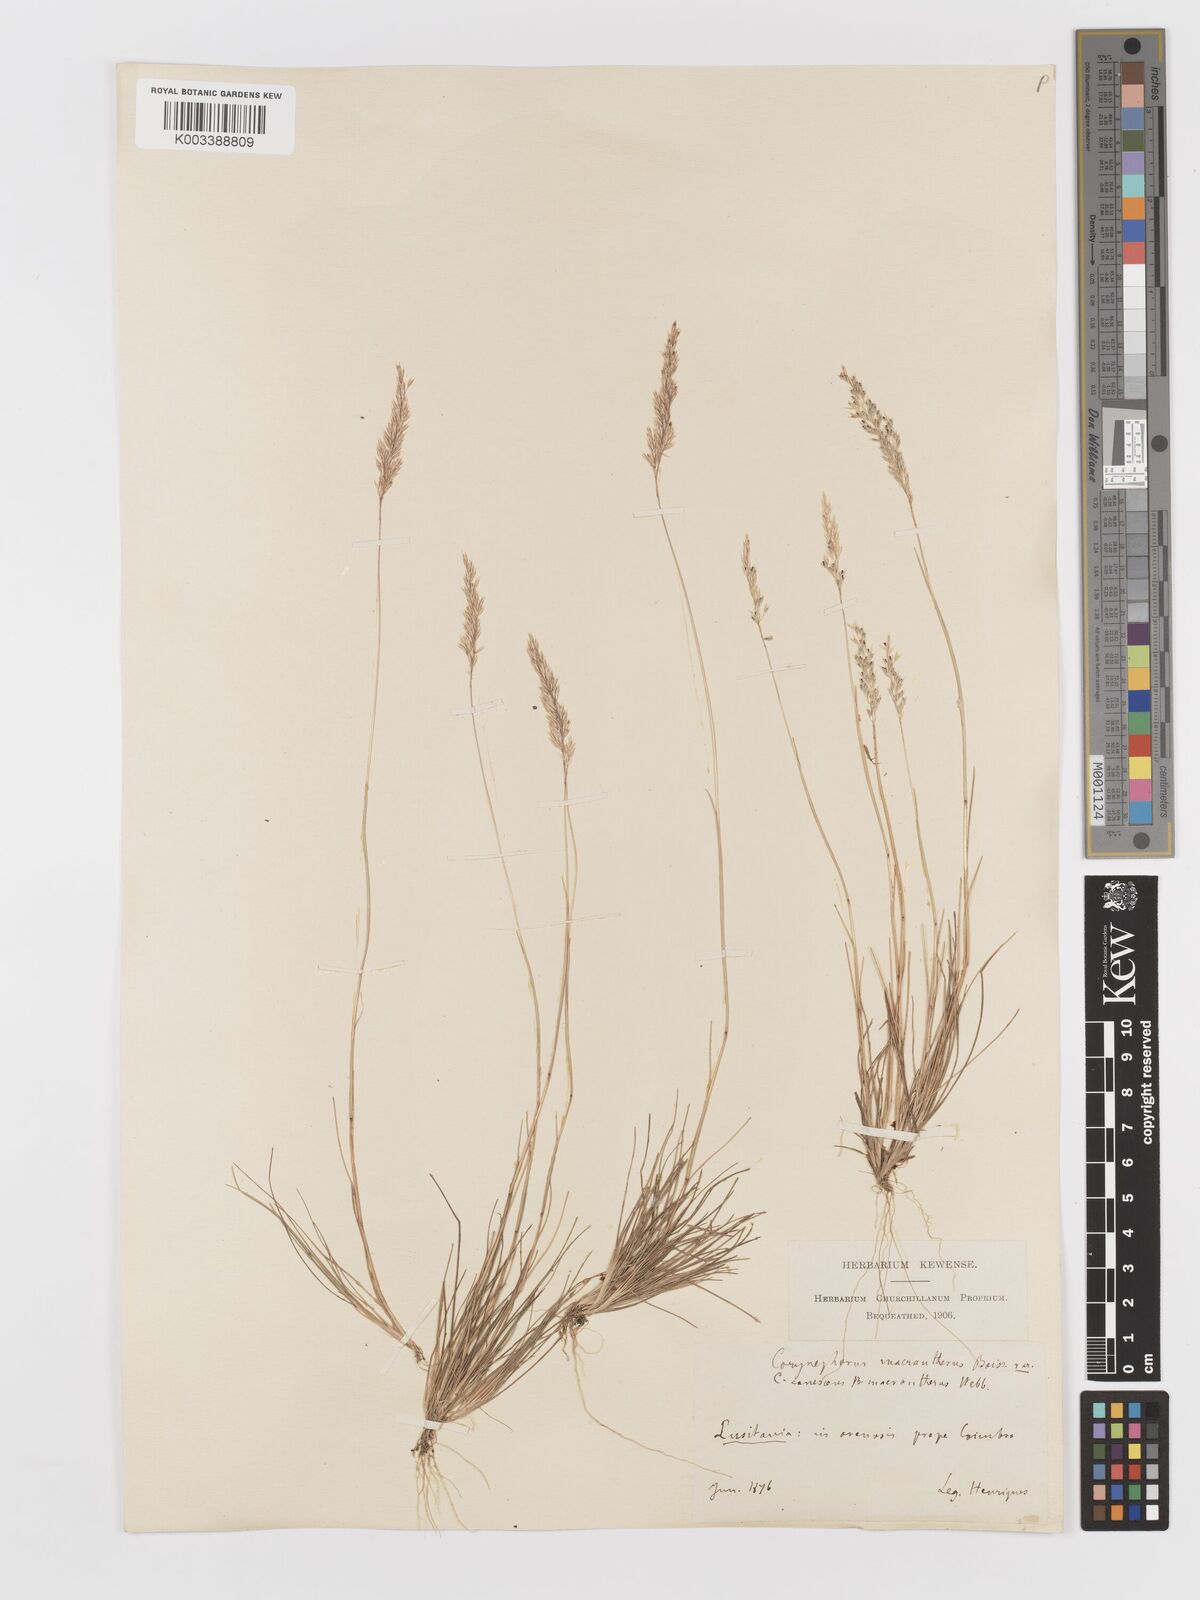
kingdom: Plantae
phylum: Tracheophyta
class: Liliopsida
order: Poales
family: Poaceae
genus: Corynephorus
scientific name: Corynephorus canescens
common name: Grey hair-grass
